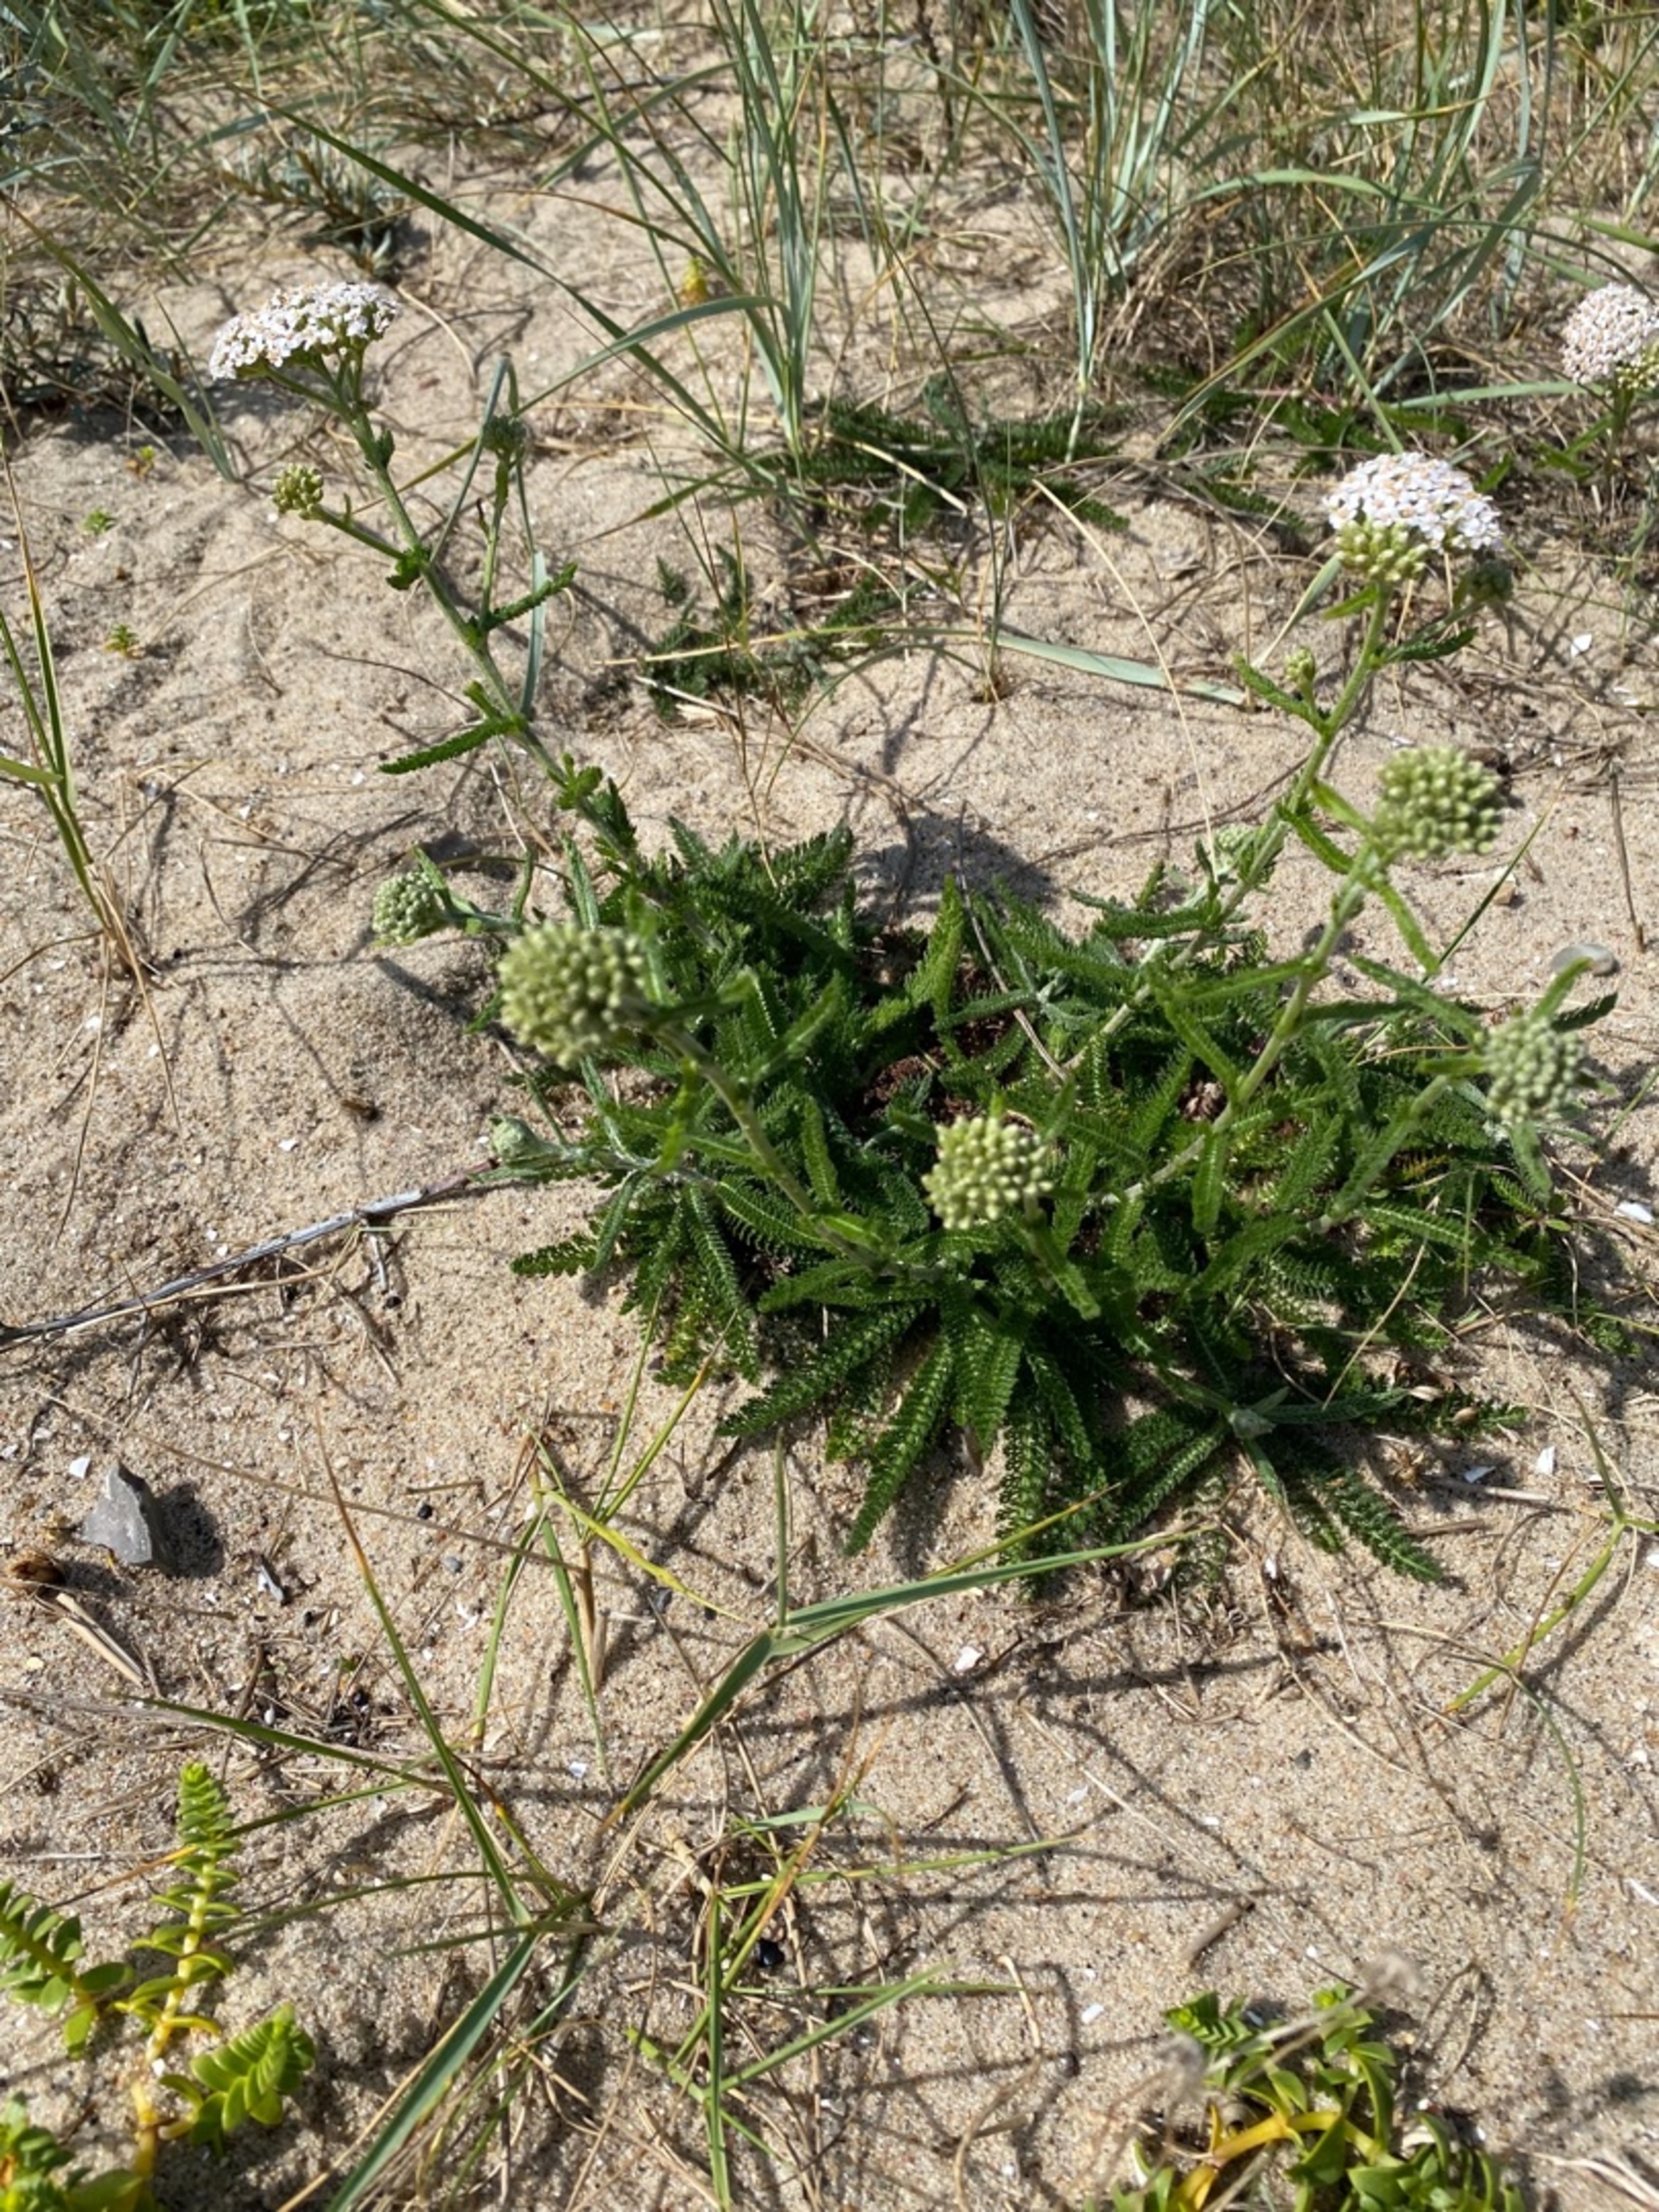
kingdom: Plantae
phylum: Tracheophyta
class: Magnoliopsida
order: Asterales
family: Asteraceae
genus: Achillea
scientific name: Achillea millefolium
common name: Almindelig røllike
